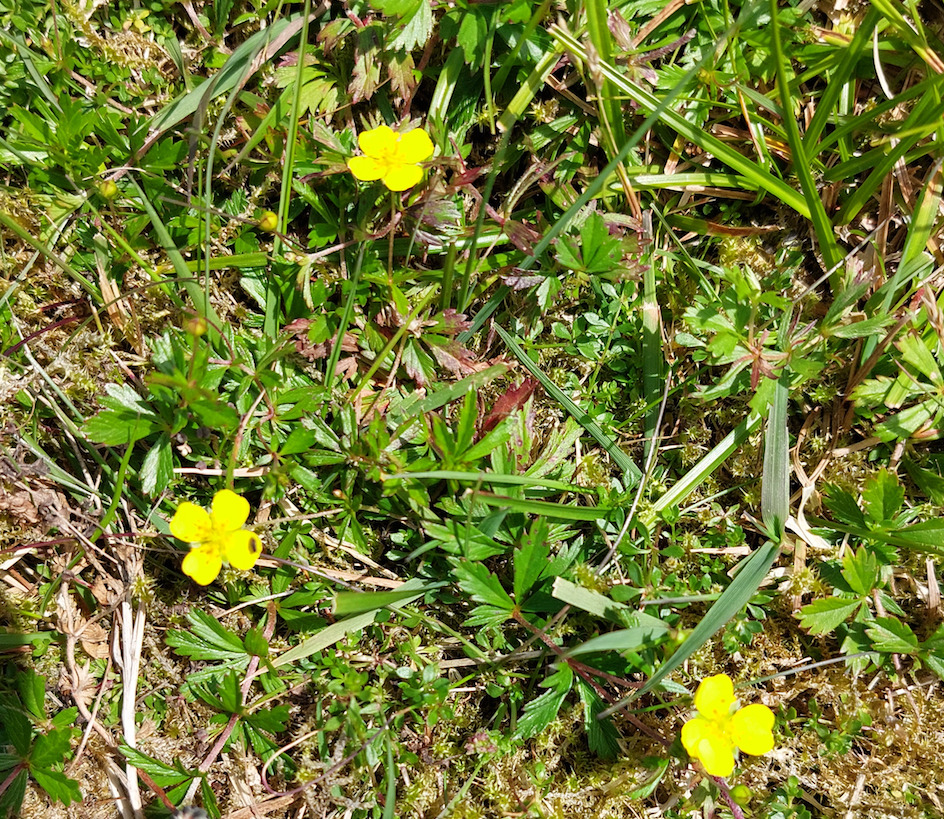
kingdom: Plantae
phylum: Tracheophyta
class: Magnoliopsida
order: Rosales
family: Rosaceae
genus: Potentilla
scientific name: Potentilla erecta
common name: Tormentil
